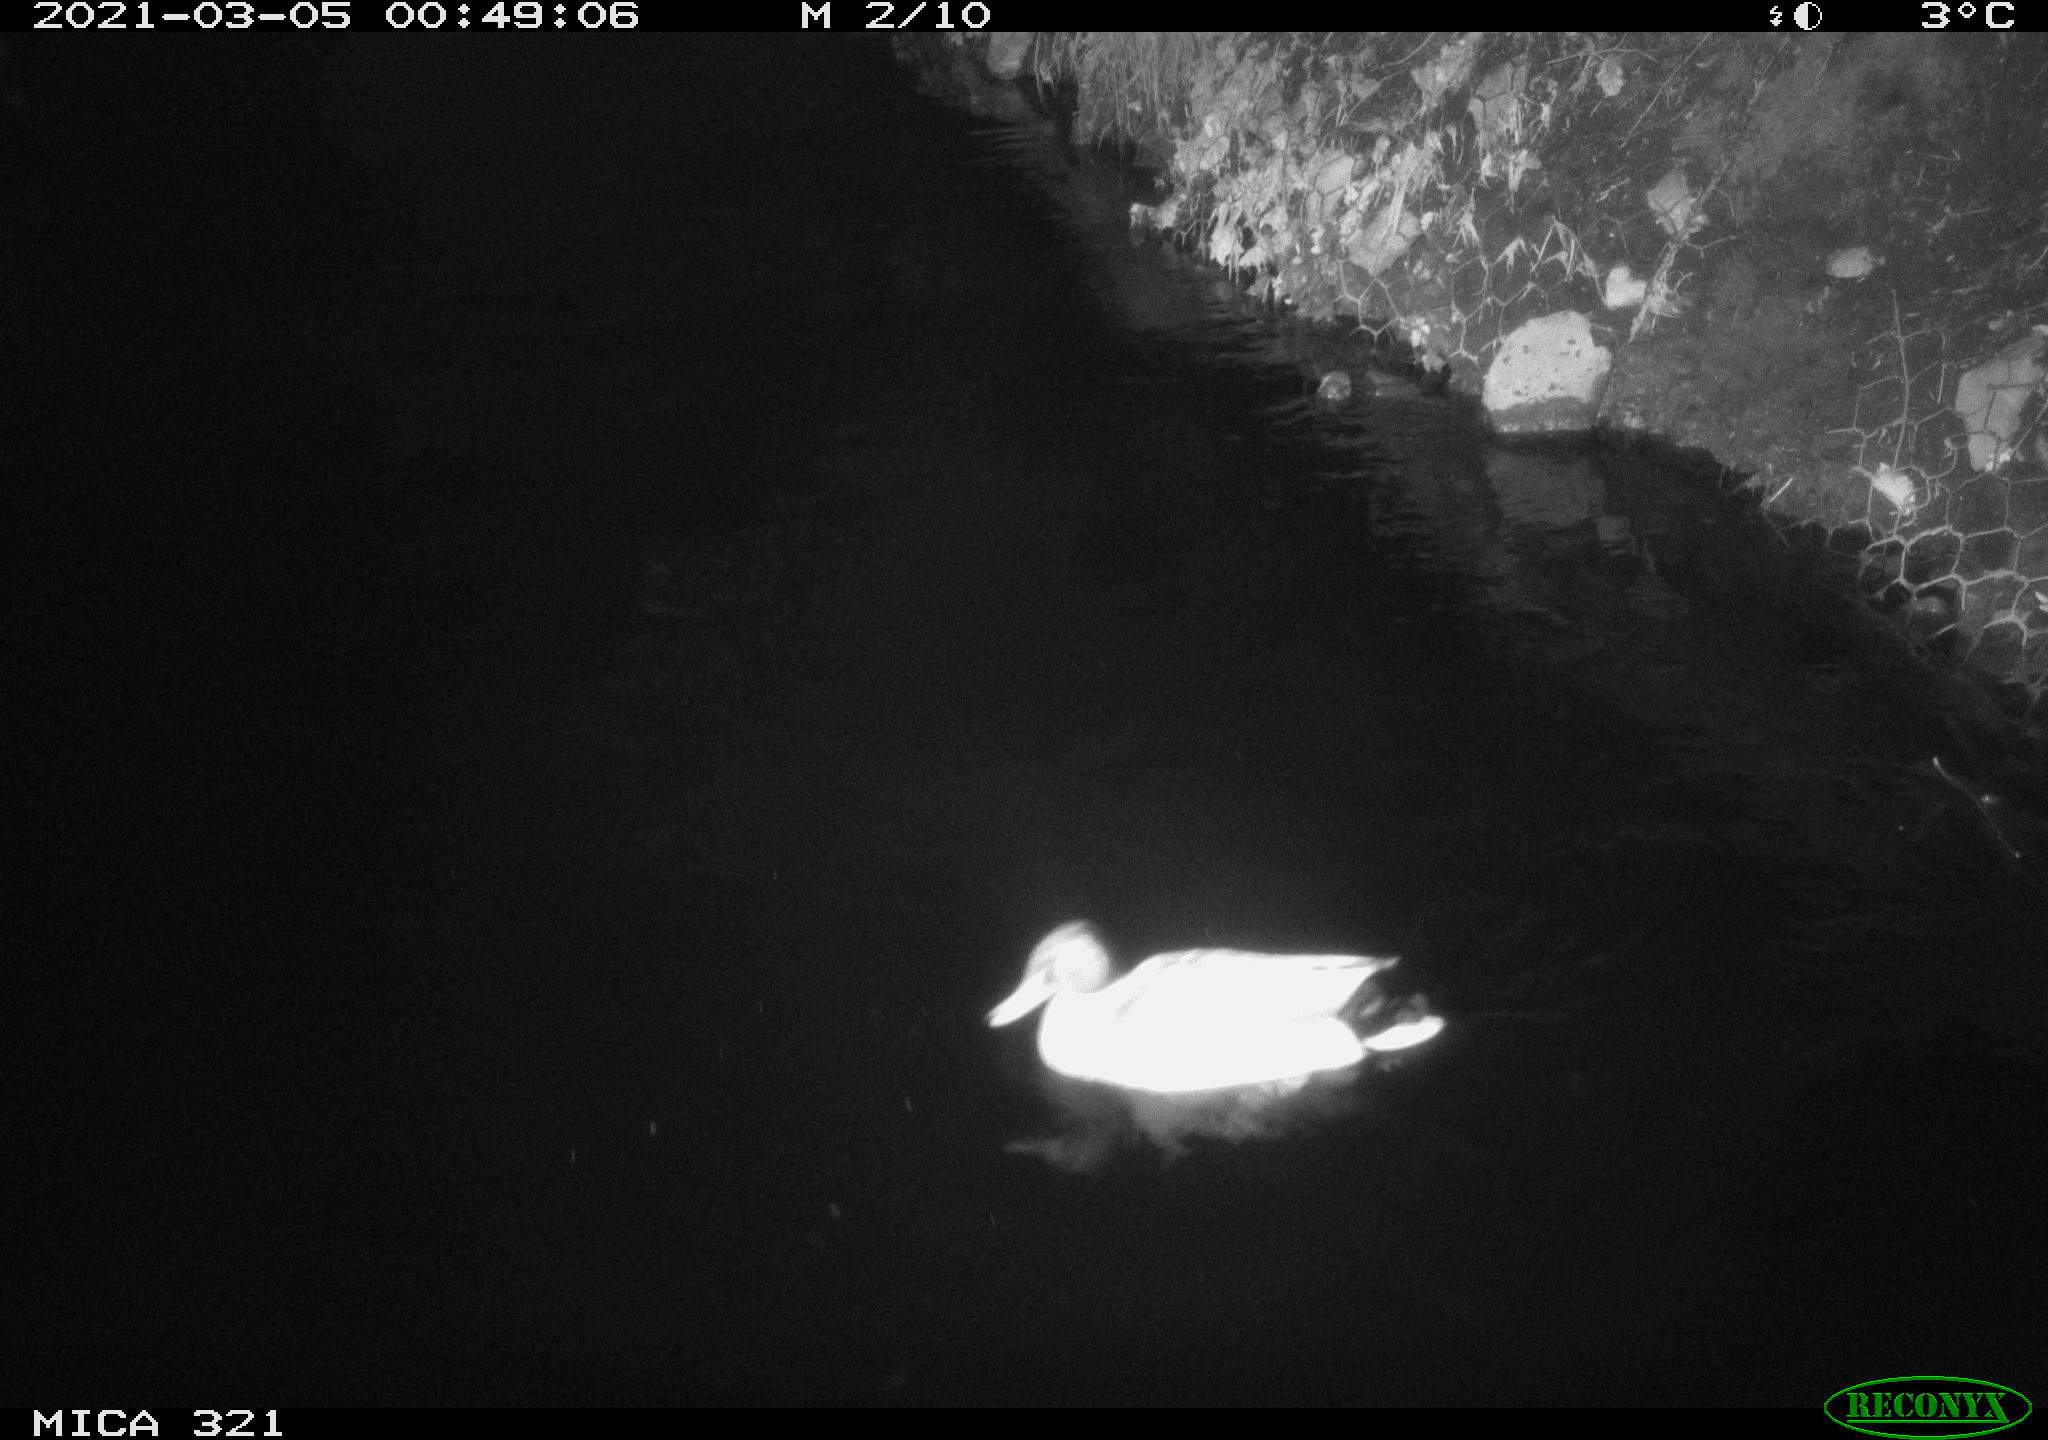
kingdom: Animalia
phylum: Chordata
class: Aves
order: Anseriformes
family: Anatidae
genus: Anas
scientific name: Anas platyrhynchos
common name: Mallard
